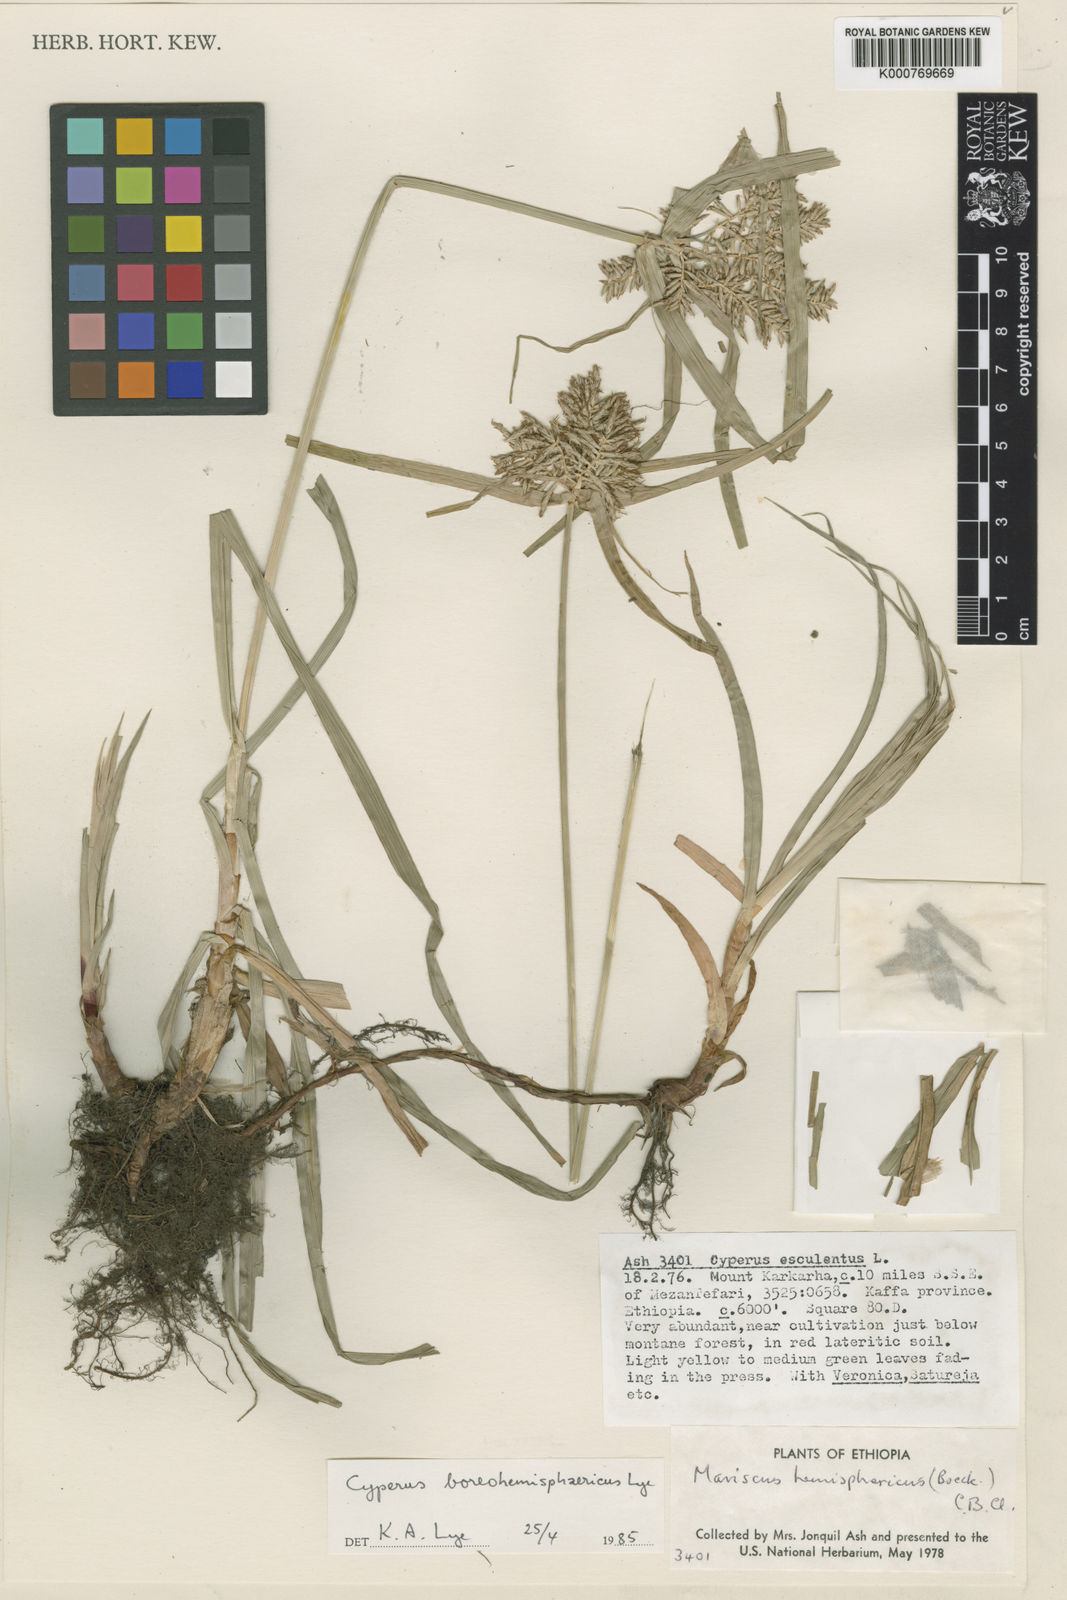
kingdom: Plantae
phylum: Tracheophyta
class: Liliopsida
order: Poales
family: Cyperaceae
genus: Cyperus
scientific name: Cyperus boreohemisphaericus
